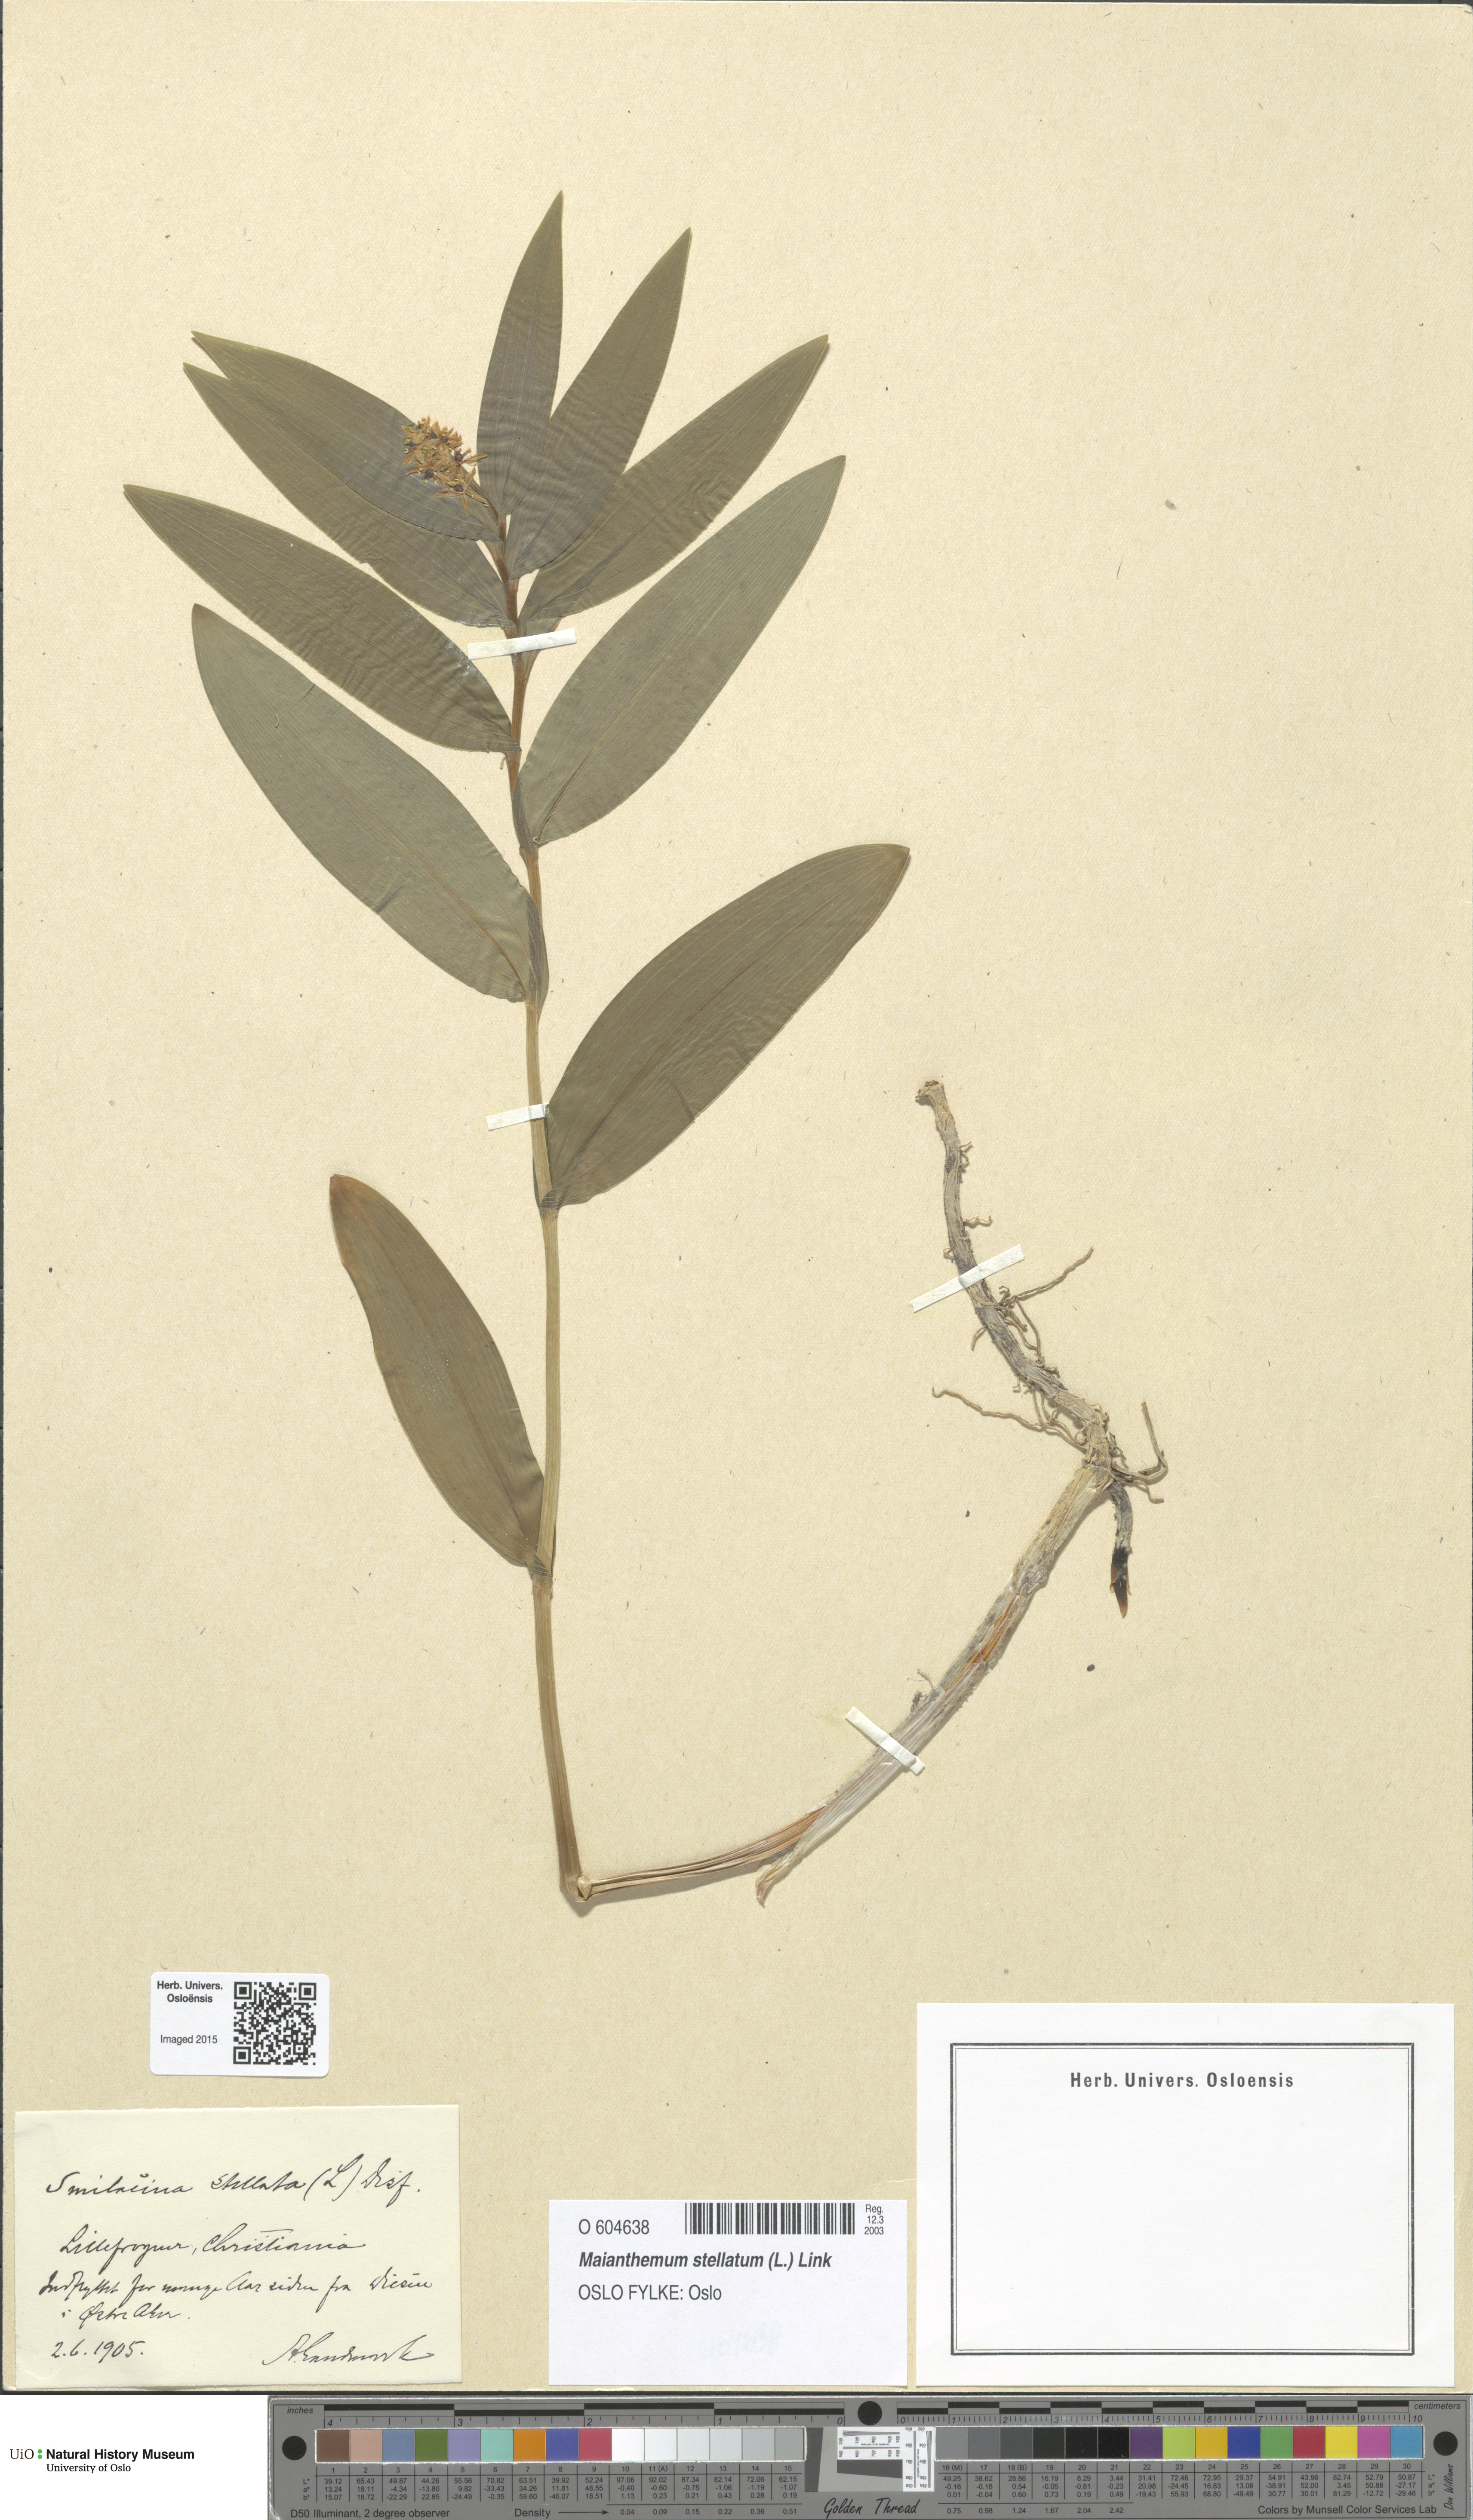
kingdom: Plantae
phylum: Tracheophyta
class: Liliopsida
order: Asparagales
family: Asparagaceae
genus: Maianthemum
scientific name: Maianthemum stellatum
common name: Little false solomon's seal
